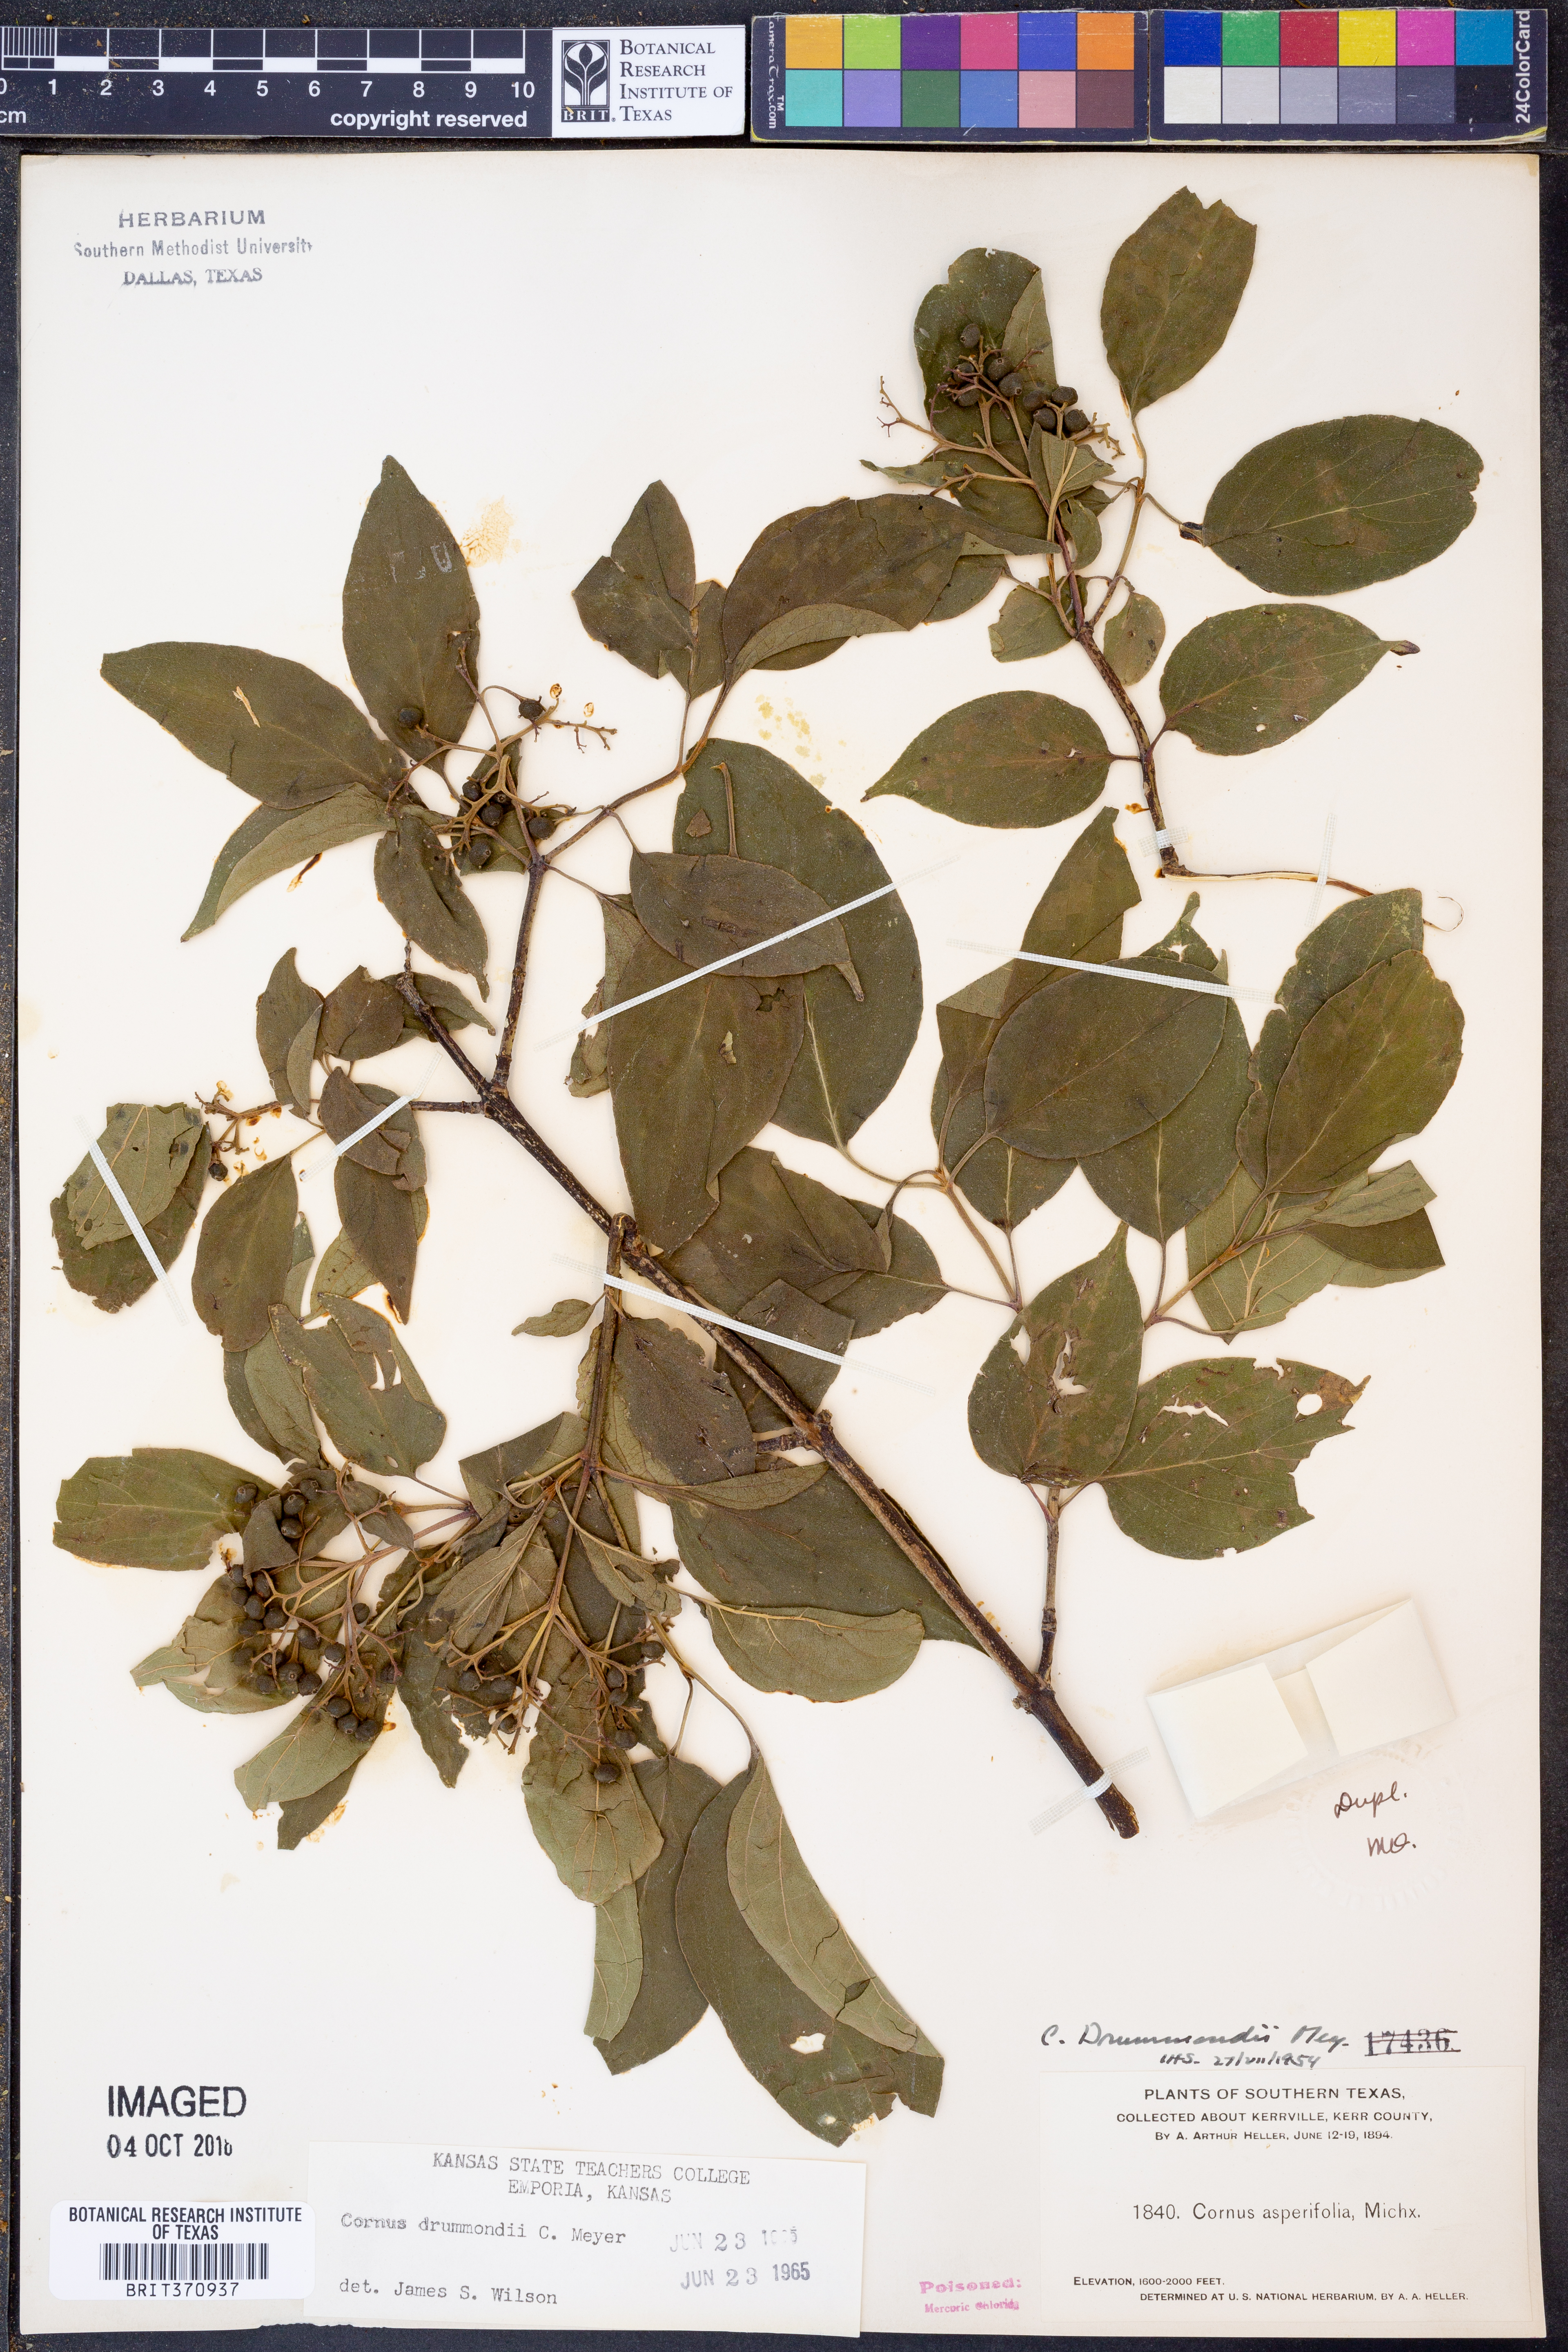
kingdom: Plantae
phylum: Tracheophyta
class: Magnoliopsida
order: Cornales
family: Cornaceae
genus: Cornus
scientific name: Cornus drummondii
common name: Rough-leaf dogwood
